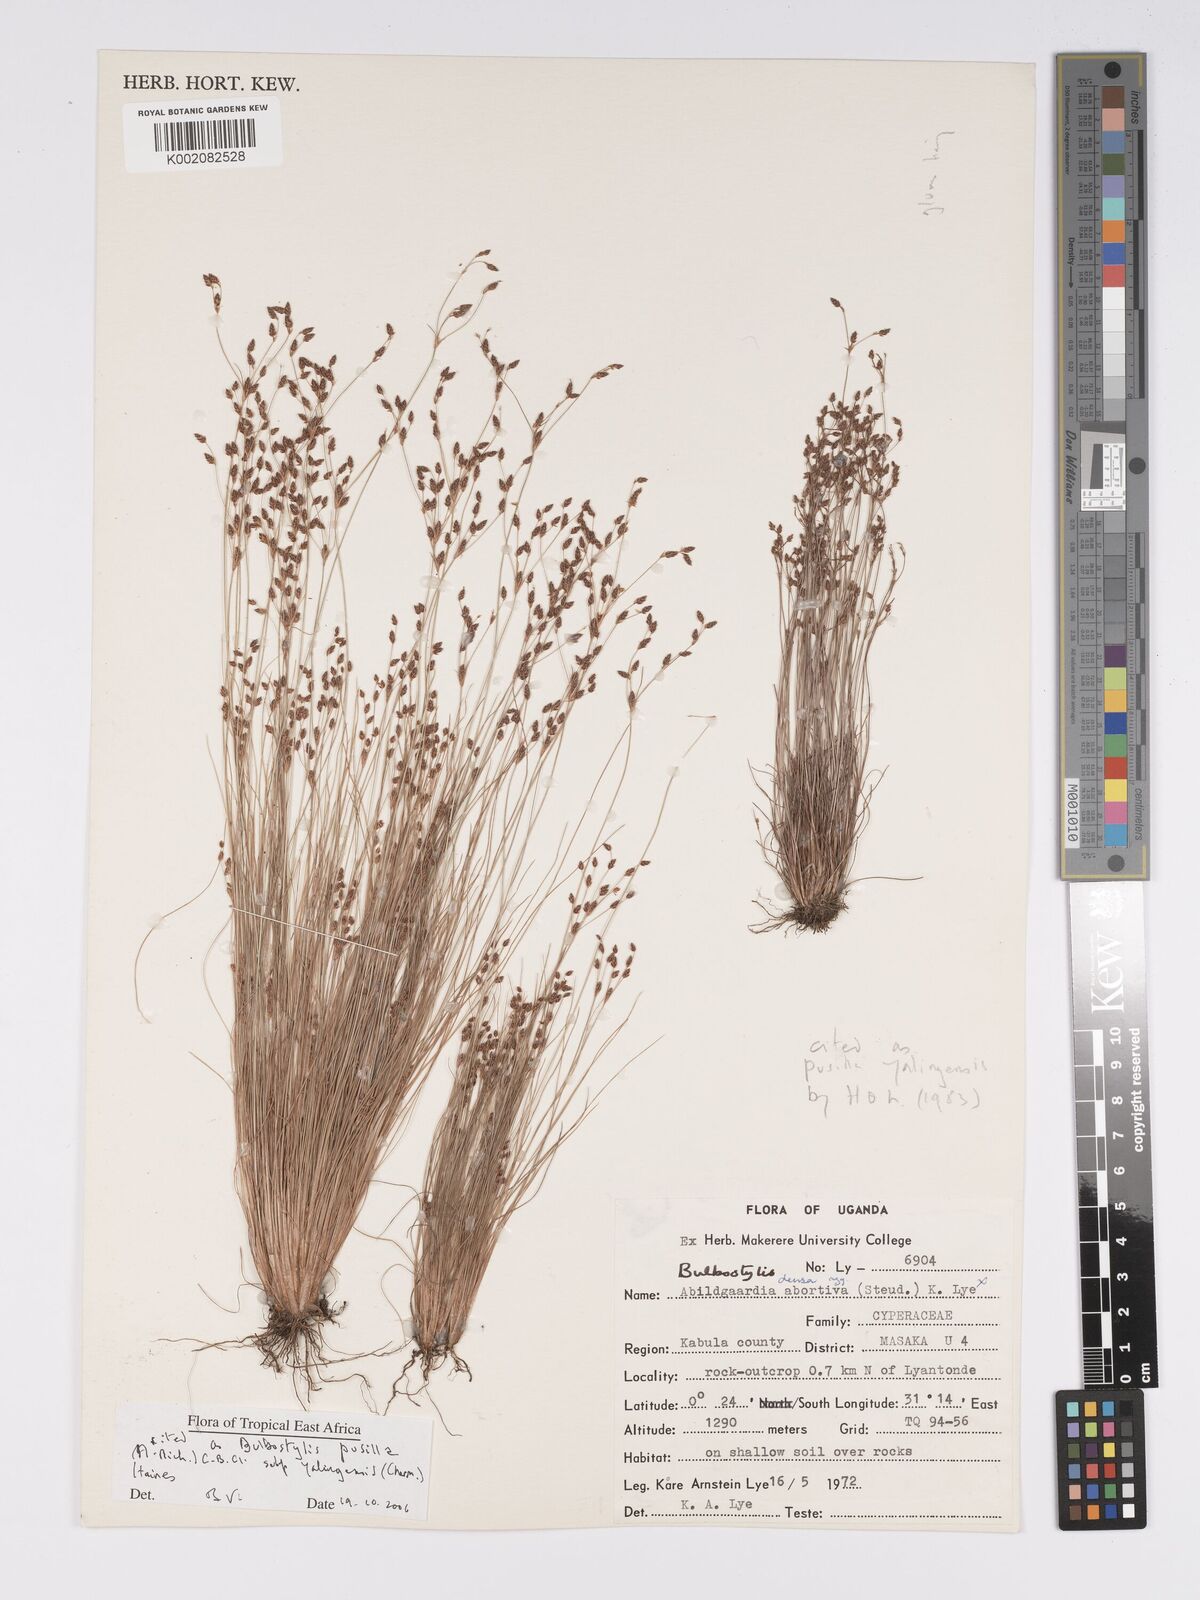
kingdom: Plantae
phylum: Tracheophyta
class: Liliopsida
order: Poales
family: Cyperaceae
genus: Bulbostylis
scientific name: Bulbostylis pusilla
